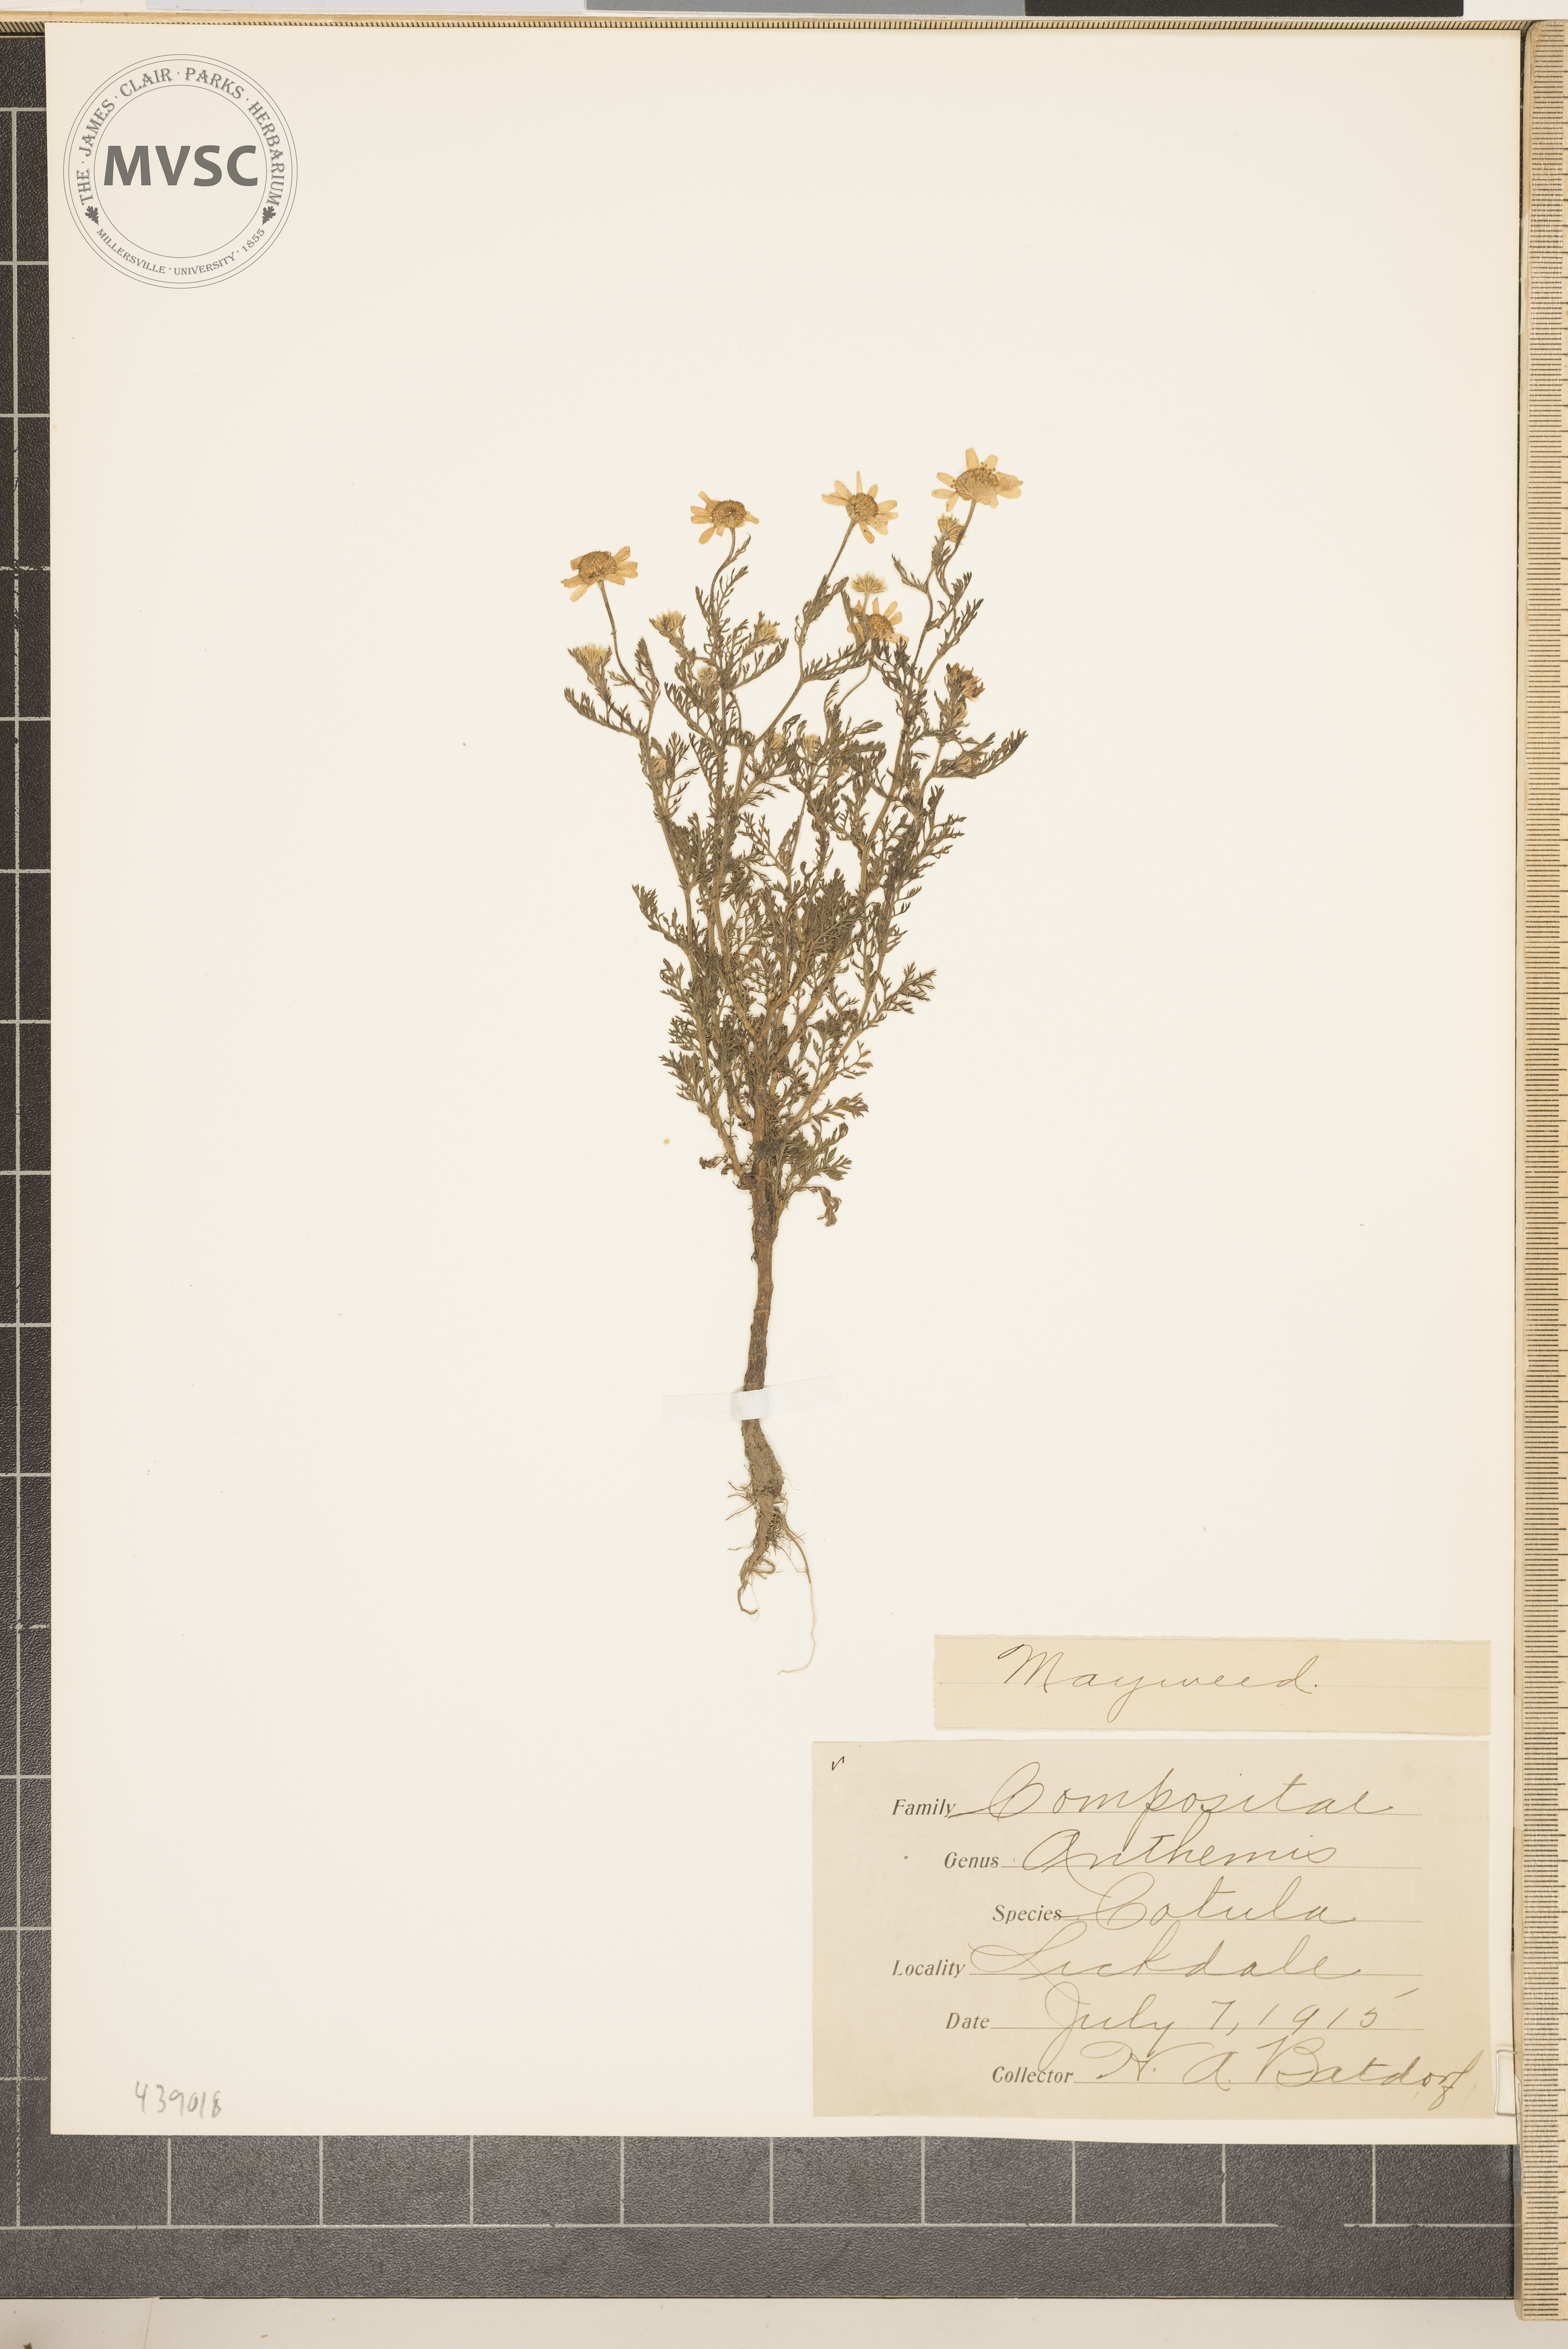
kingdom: Plantae
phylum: Tracheophyta
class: Magnoliopsida
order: Asterales
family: Asteraceae
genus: Anthemis
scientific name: Anthemis cotula
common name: Mayweed
